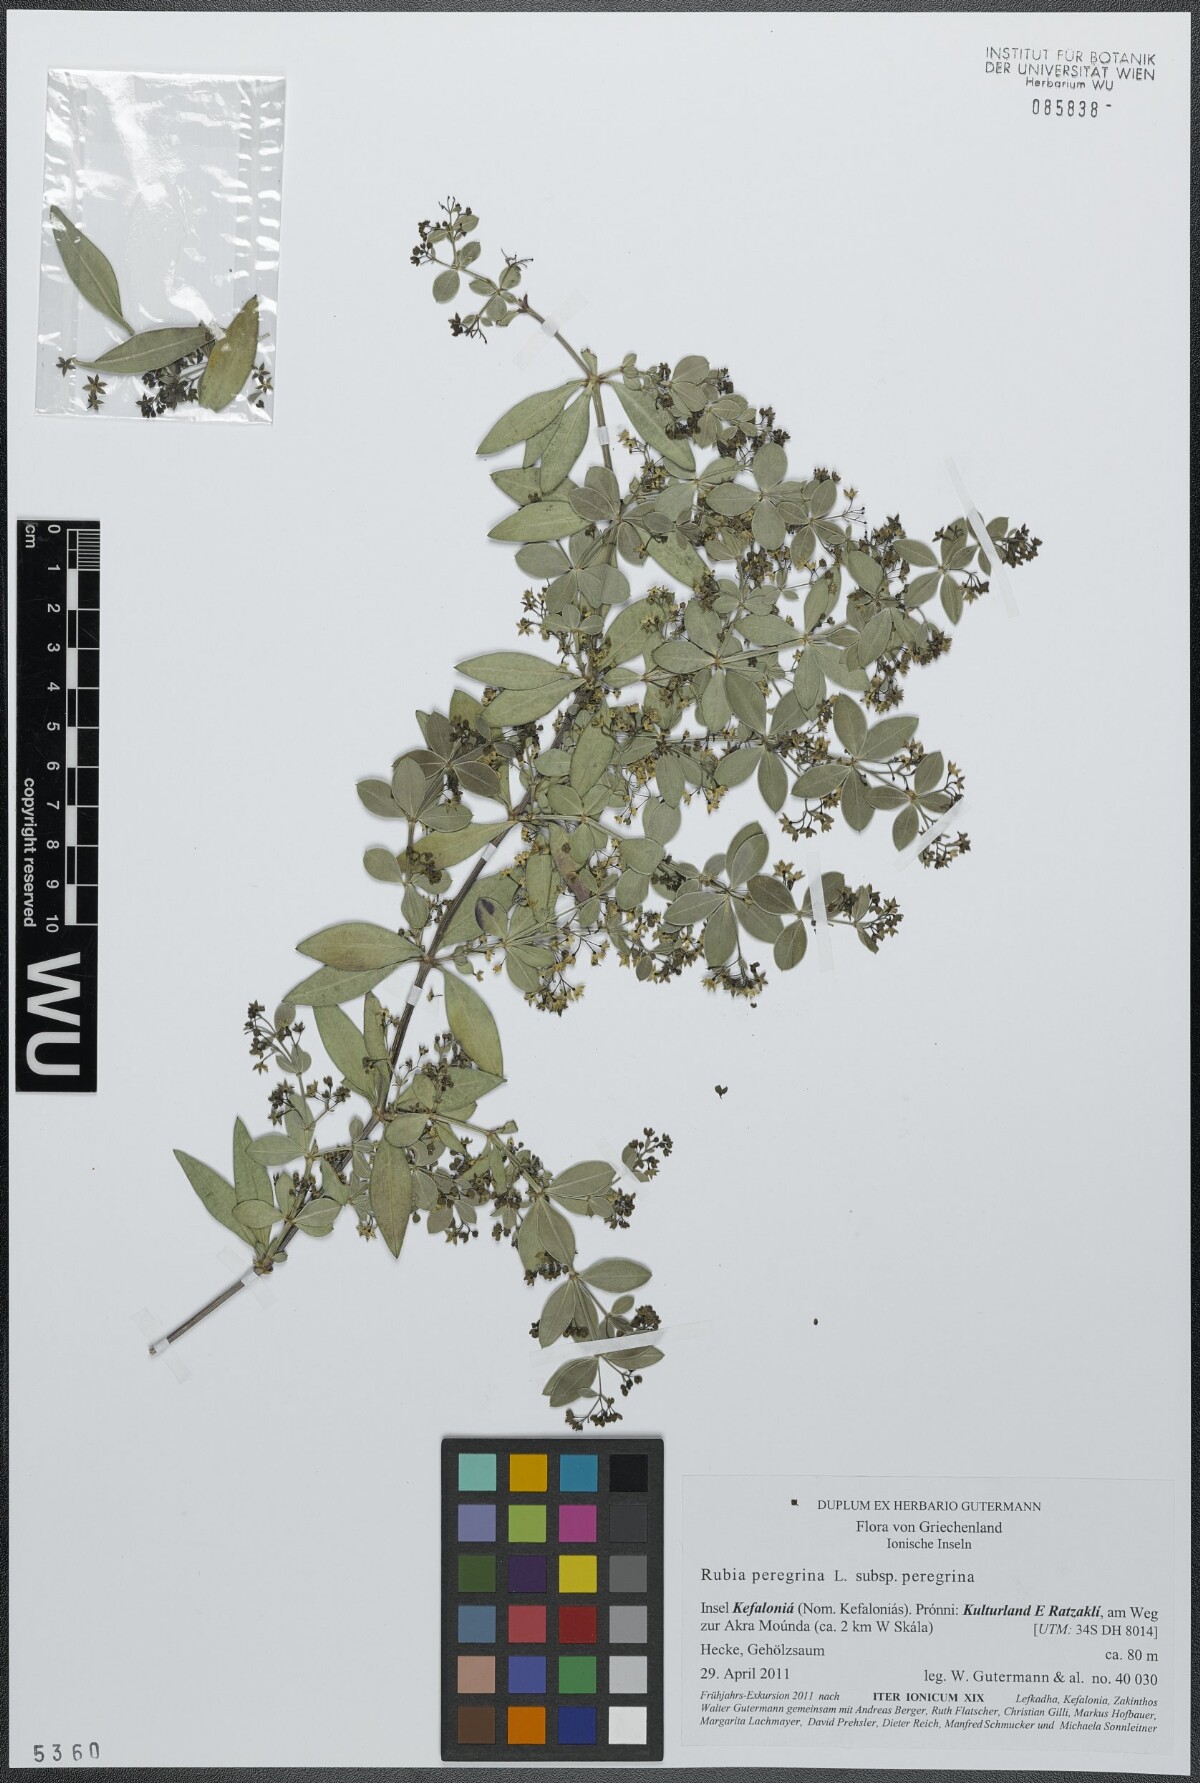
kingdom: Plantae
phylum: Tracheophyta
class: Magnoliopsida
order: Gentianales
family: Rubiaceae
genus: Rubia
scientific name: Rubia peregrina
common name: Wild madder
